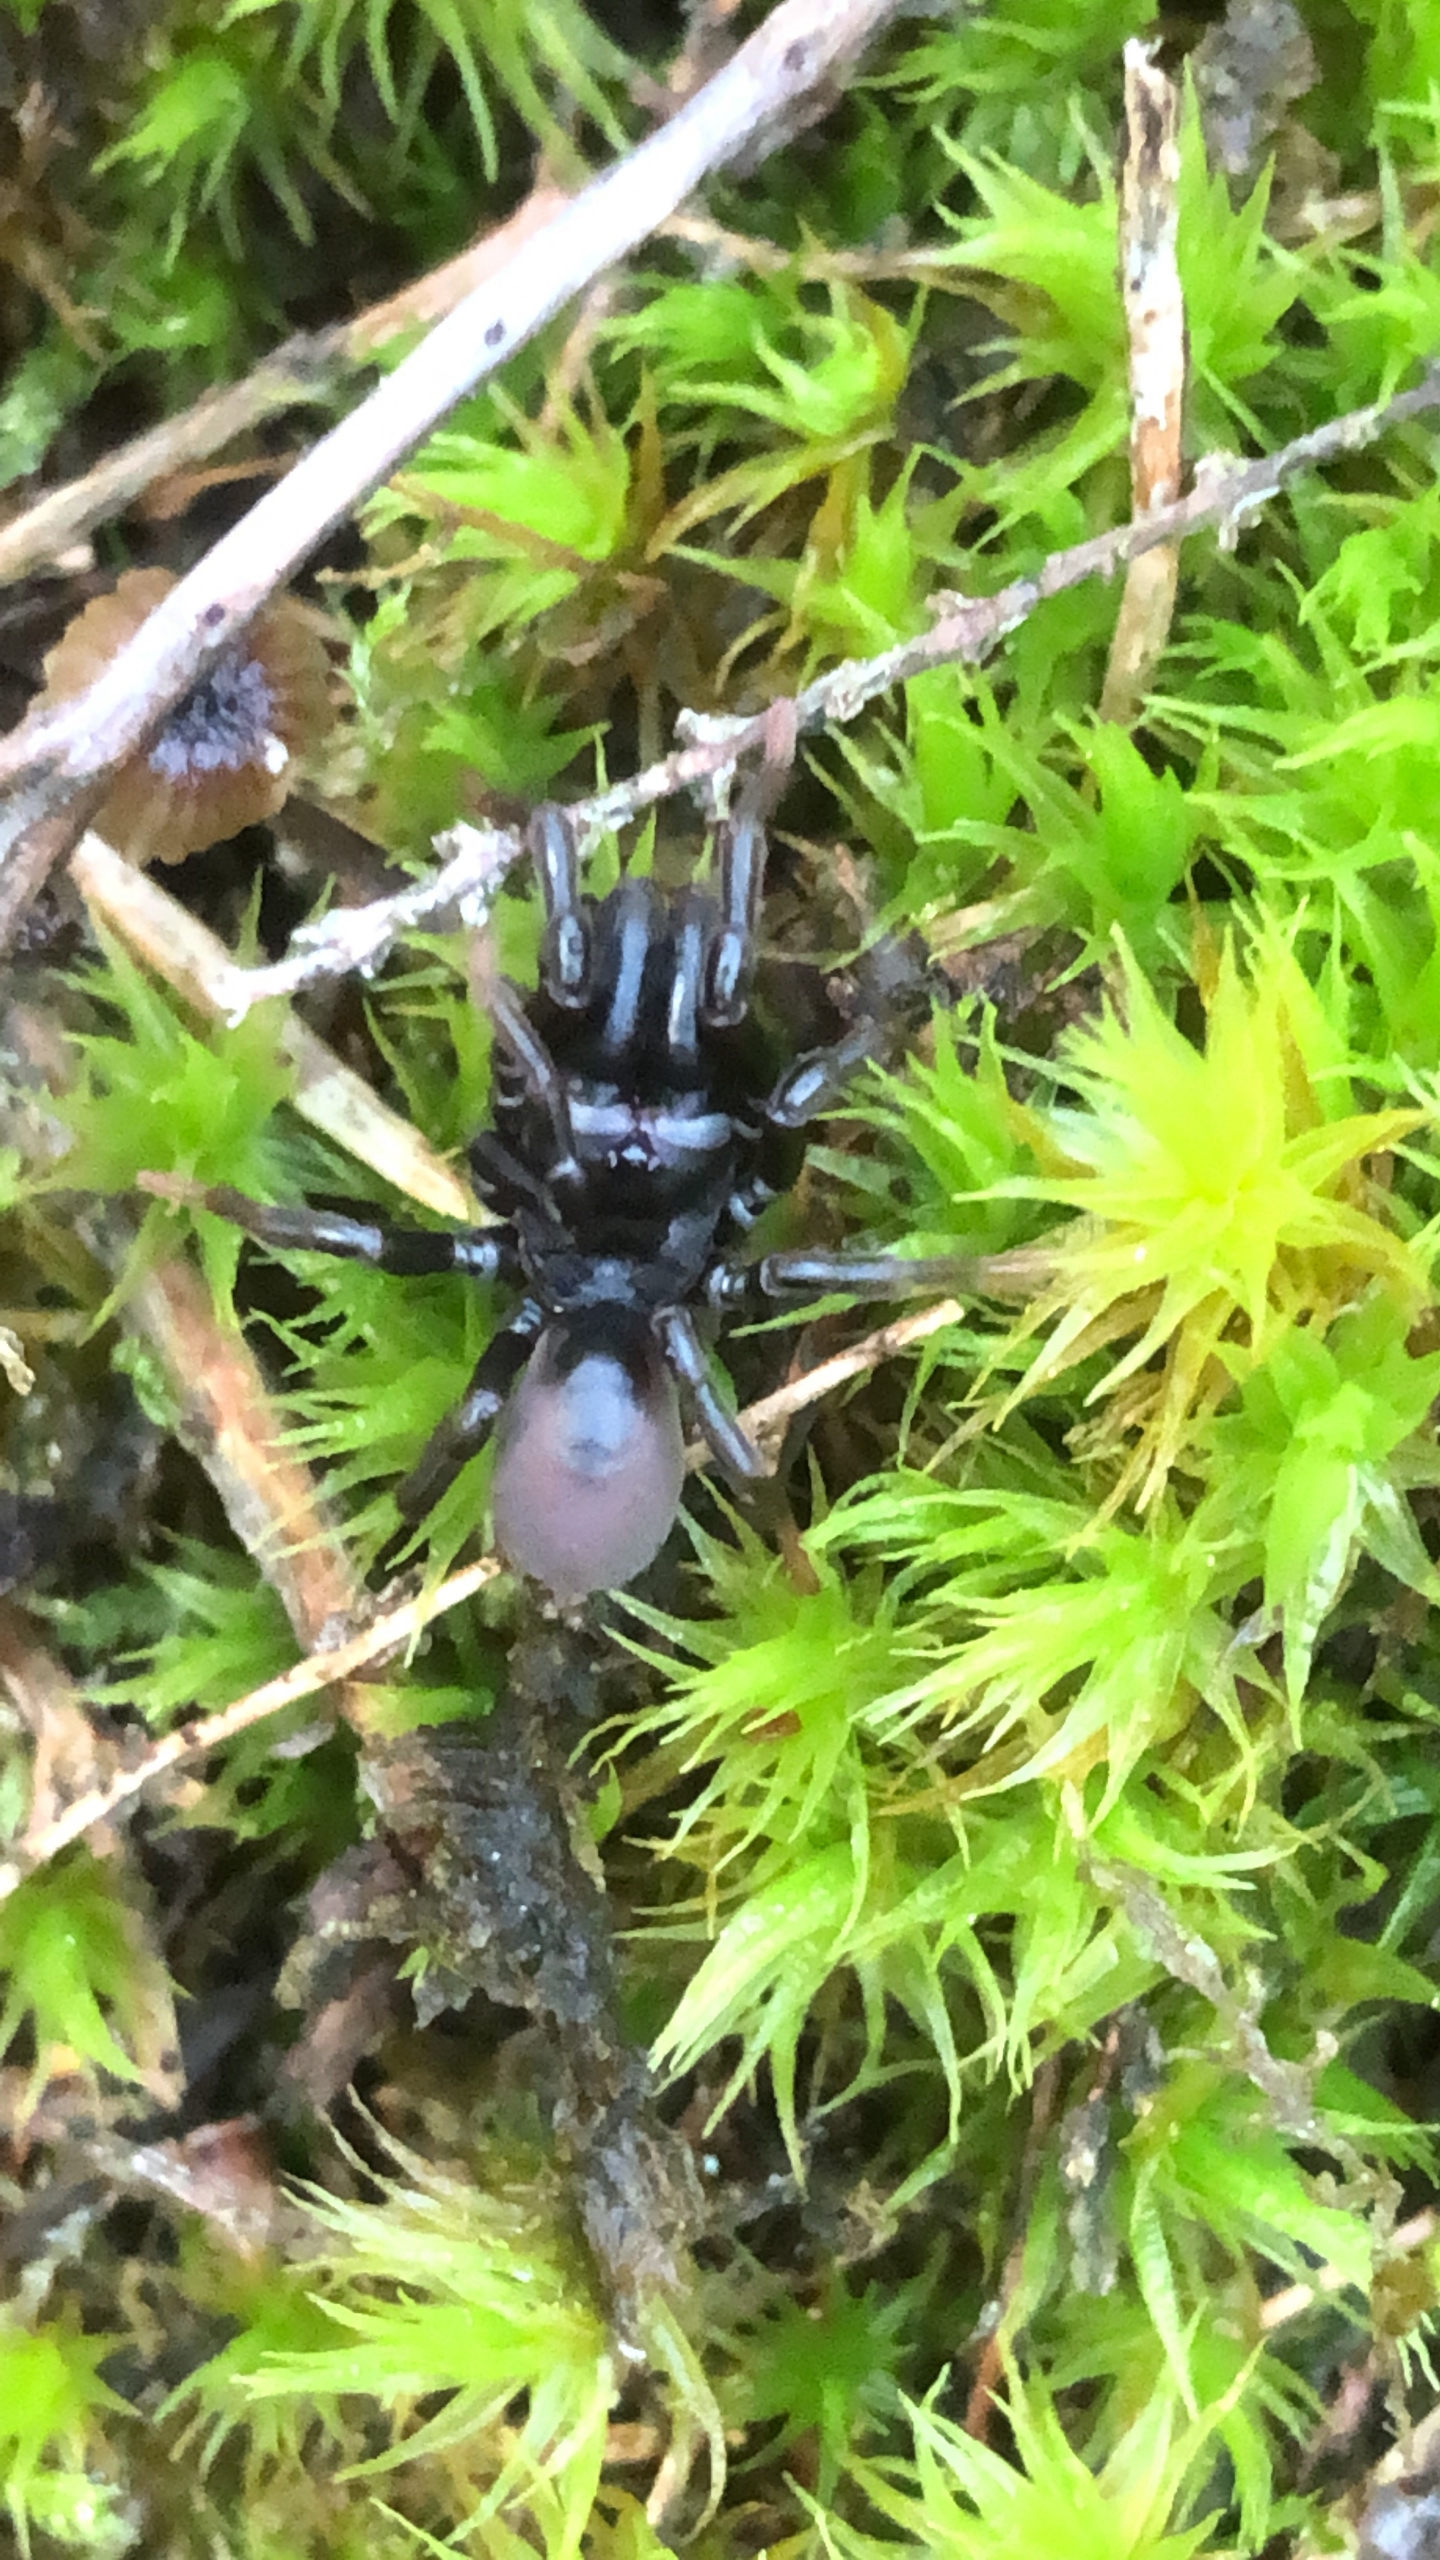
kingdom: Animalia
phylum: Arthropoda
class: Arachnida
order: Araneae
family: Atypidae
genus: Atypus
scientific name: Atypus affinis
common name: Nordlig fugleedderkop
